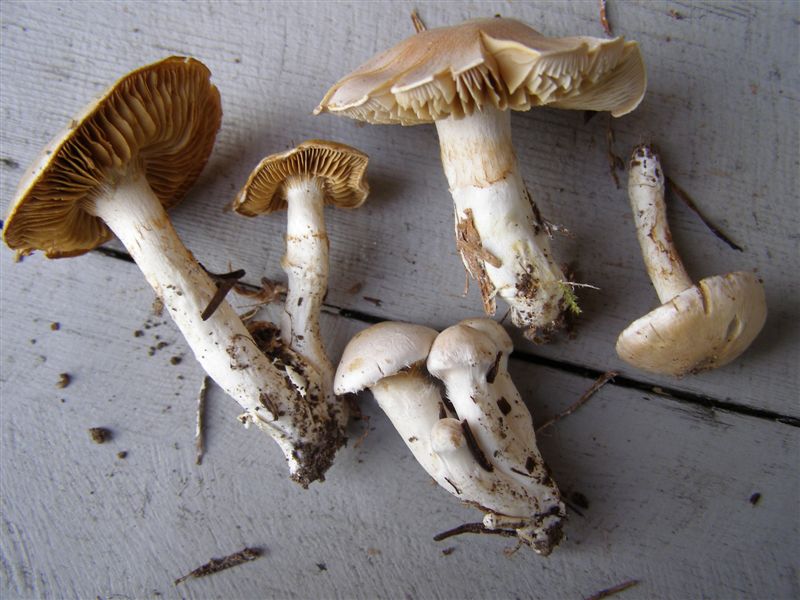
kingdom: Fungi
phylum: Basidiomycota
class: Agaricomycetes
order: Agaricales
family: Cortinariaceae
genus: Thaxterogaster
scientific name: Thaxterogaster barbatus
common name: elfenbens-slørhat
